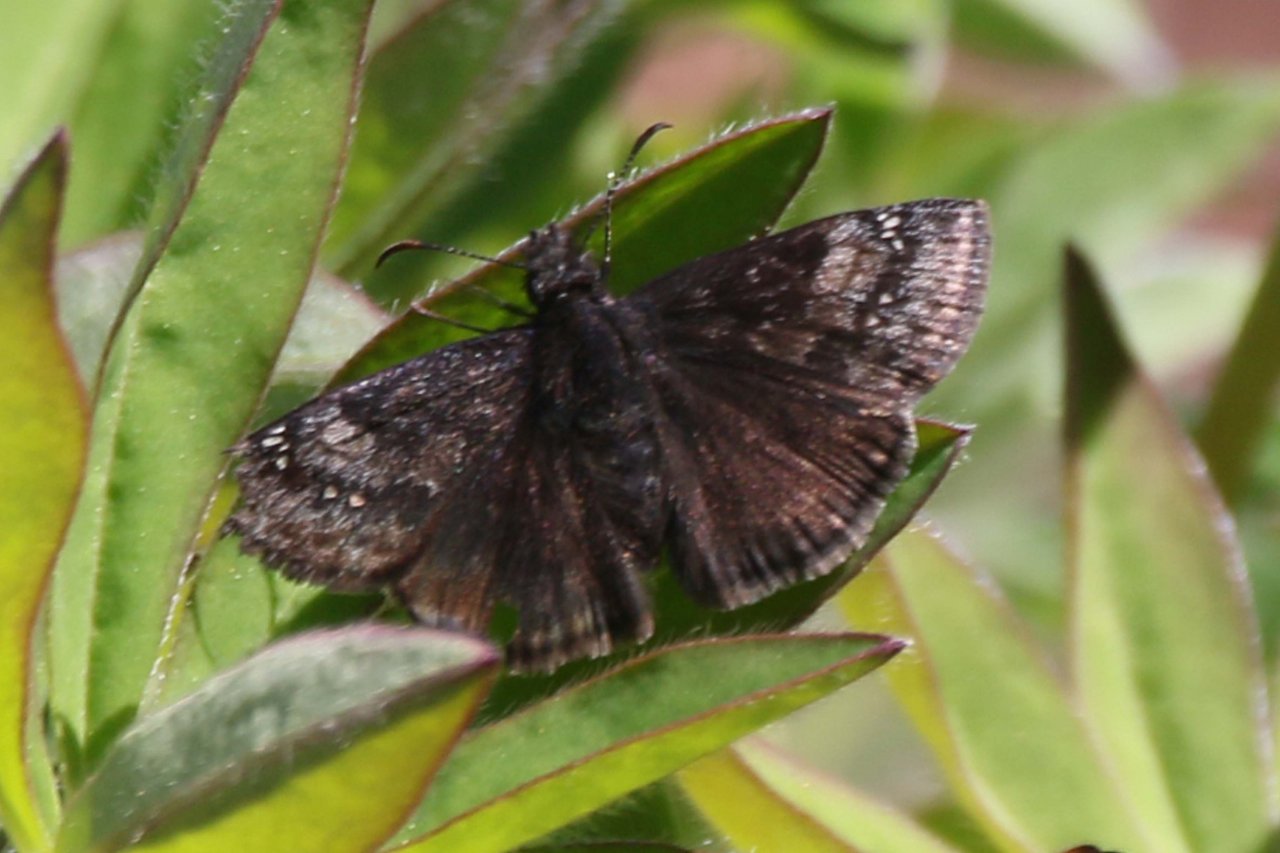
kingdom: Animalia
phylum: Arthropoda
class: Insecta
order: Lepidoptera
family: Hesperiidae
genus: Gesta
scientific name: Gesta
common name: Wild Indigo Duskywing
